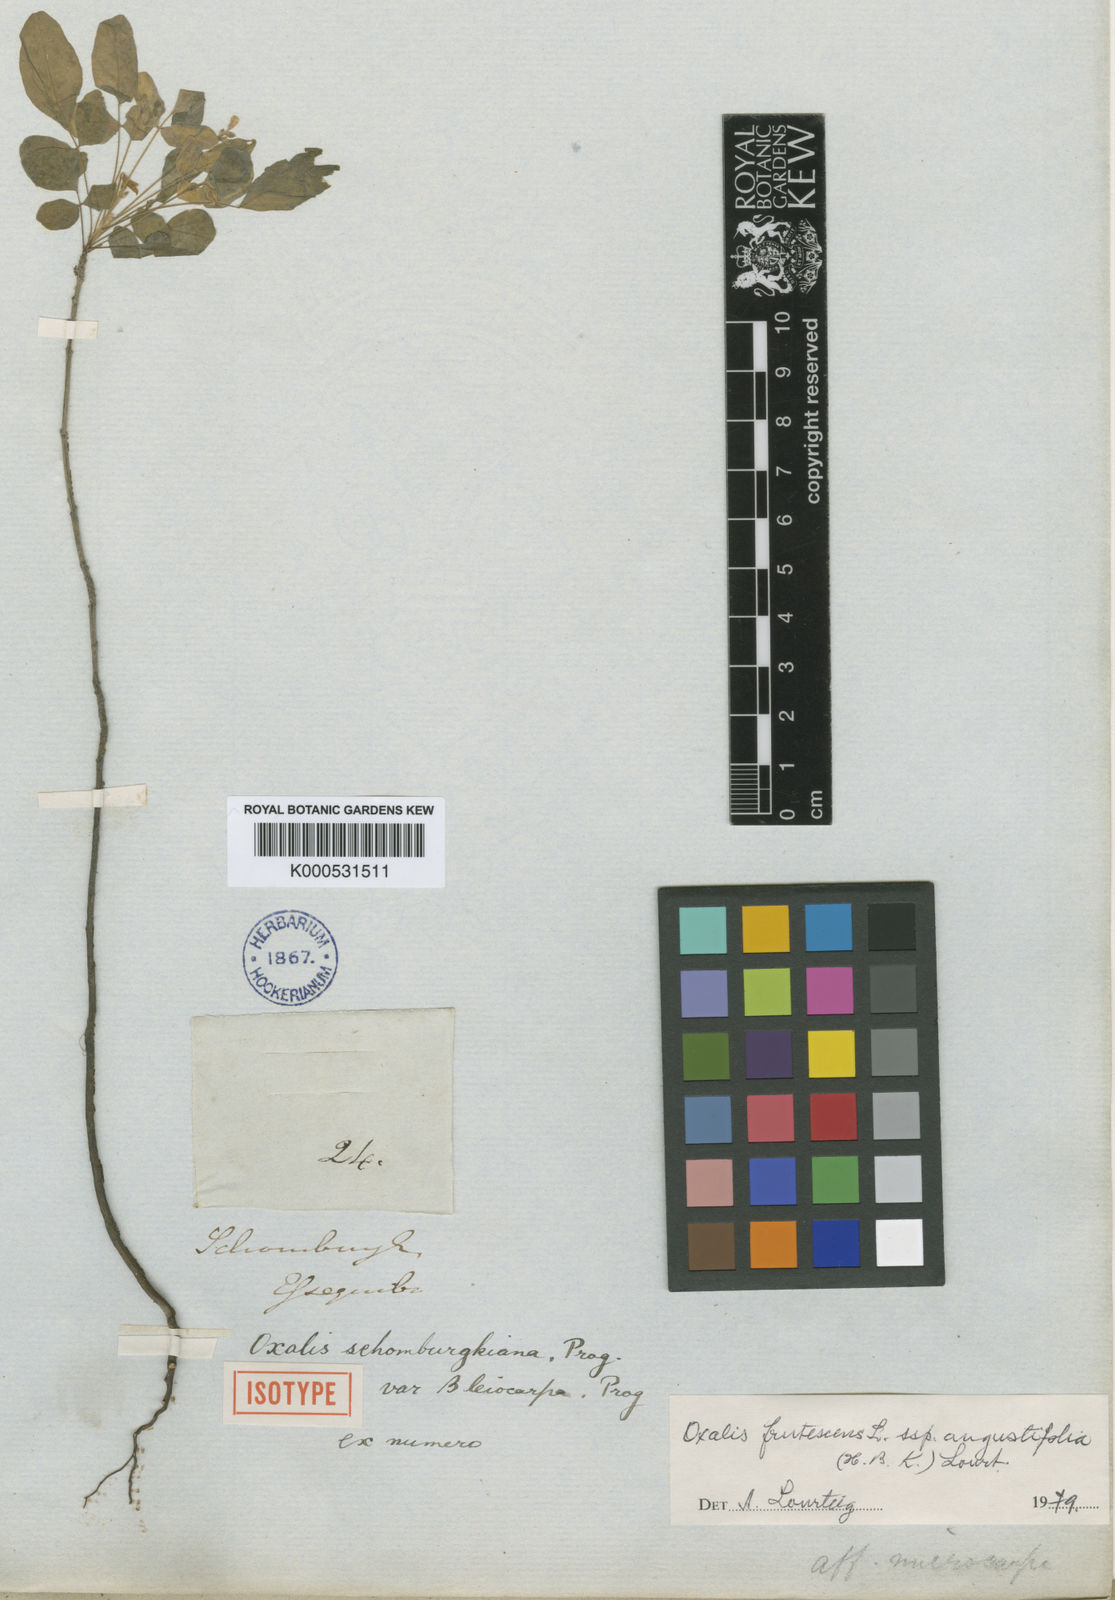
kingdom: Plantae
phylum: Tracheophyta
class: Magnoliopsida
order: Oxalidales
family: Oxalidaceae
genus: Oxalis
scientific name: Oxalis frutescens
